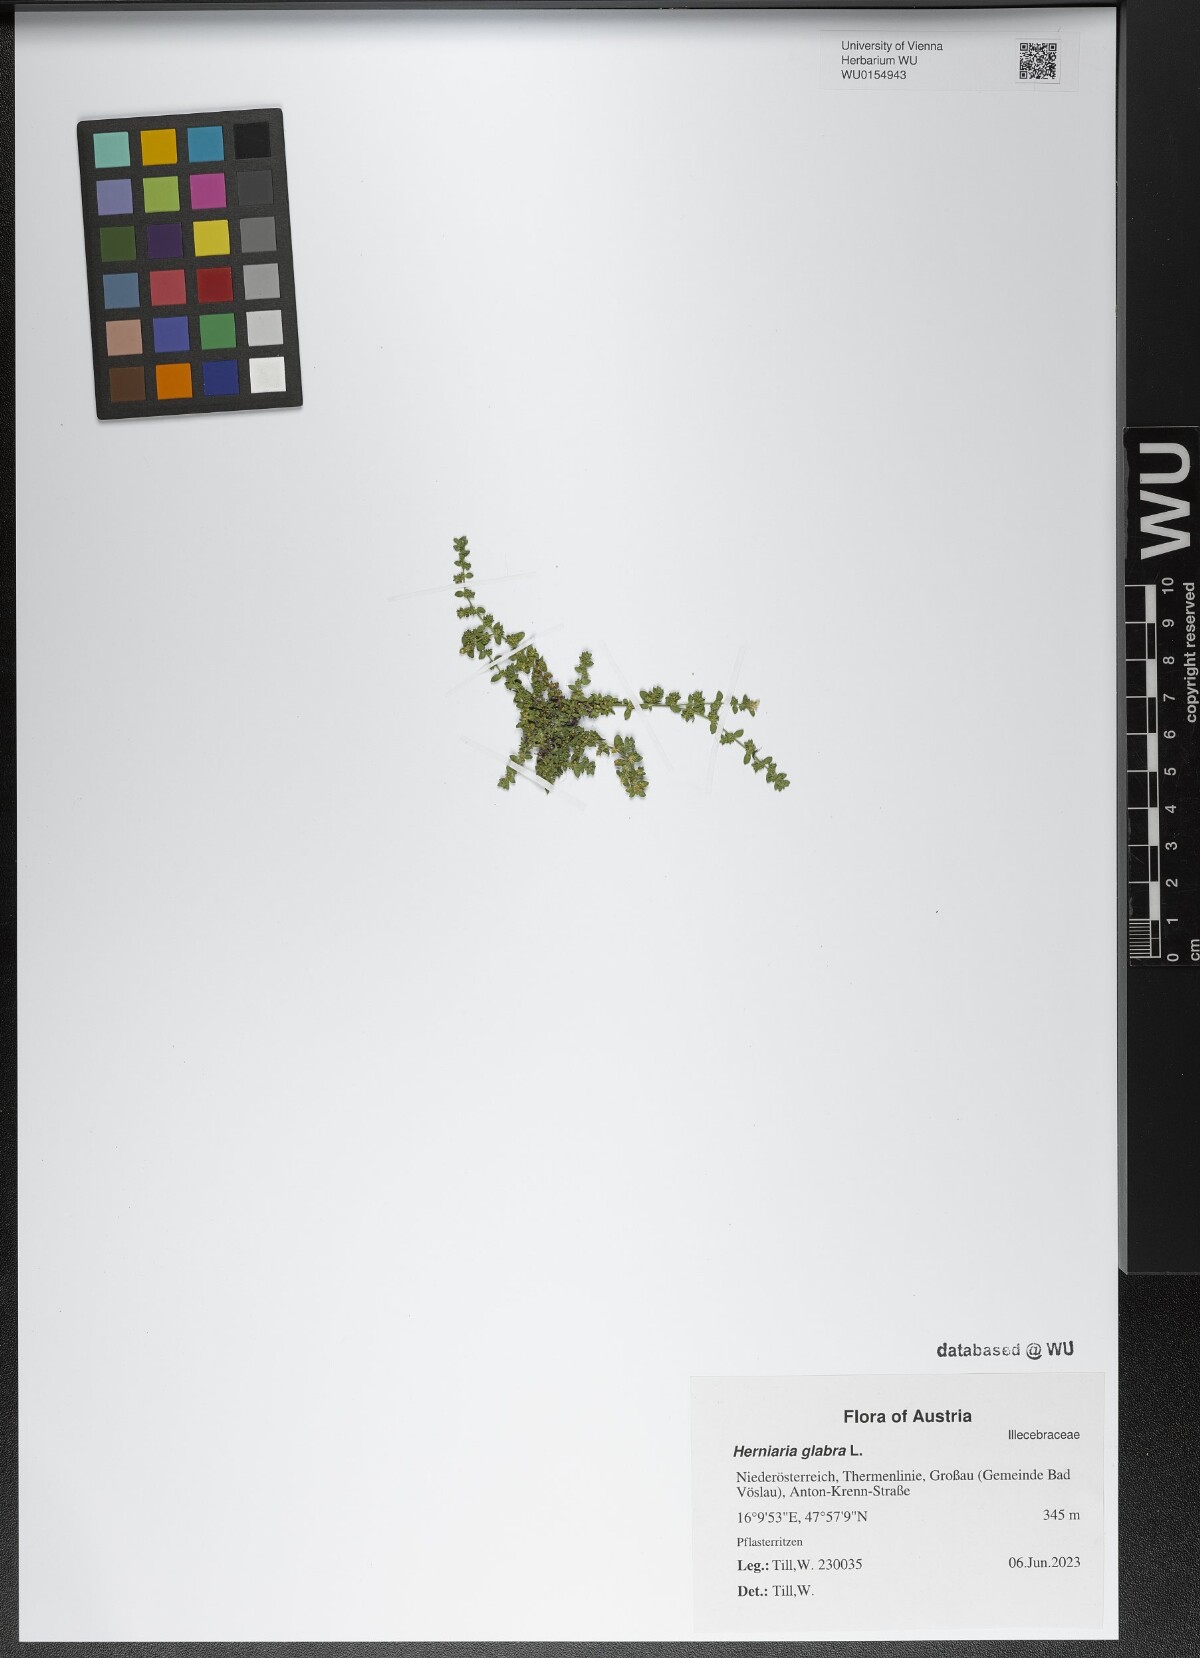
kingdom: Plantae
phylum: Tracheophyta
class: Magnoliopsida
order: Caryophyllales
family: Caryophyllaceae
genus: Herniaria
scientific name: Herniaria glabra
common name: Smooth rupturewort
